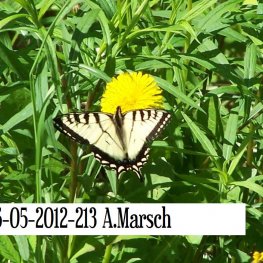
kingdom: Animalia
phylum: Arthropoda
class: Insecta
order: Lepidoptera
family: Papilionidae
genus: Pterourus
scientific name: Pterourus canadensis
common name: Canadian Tiger Swallowtail
